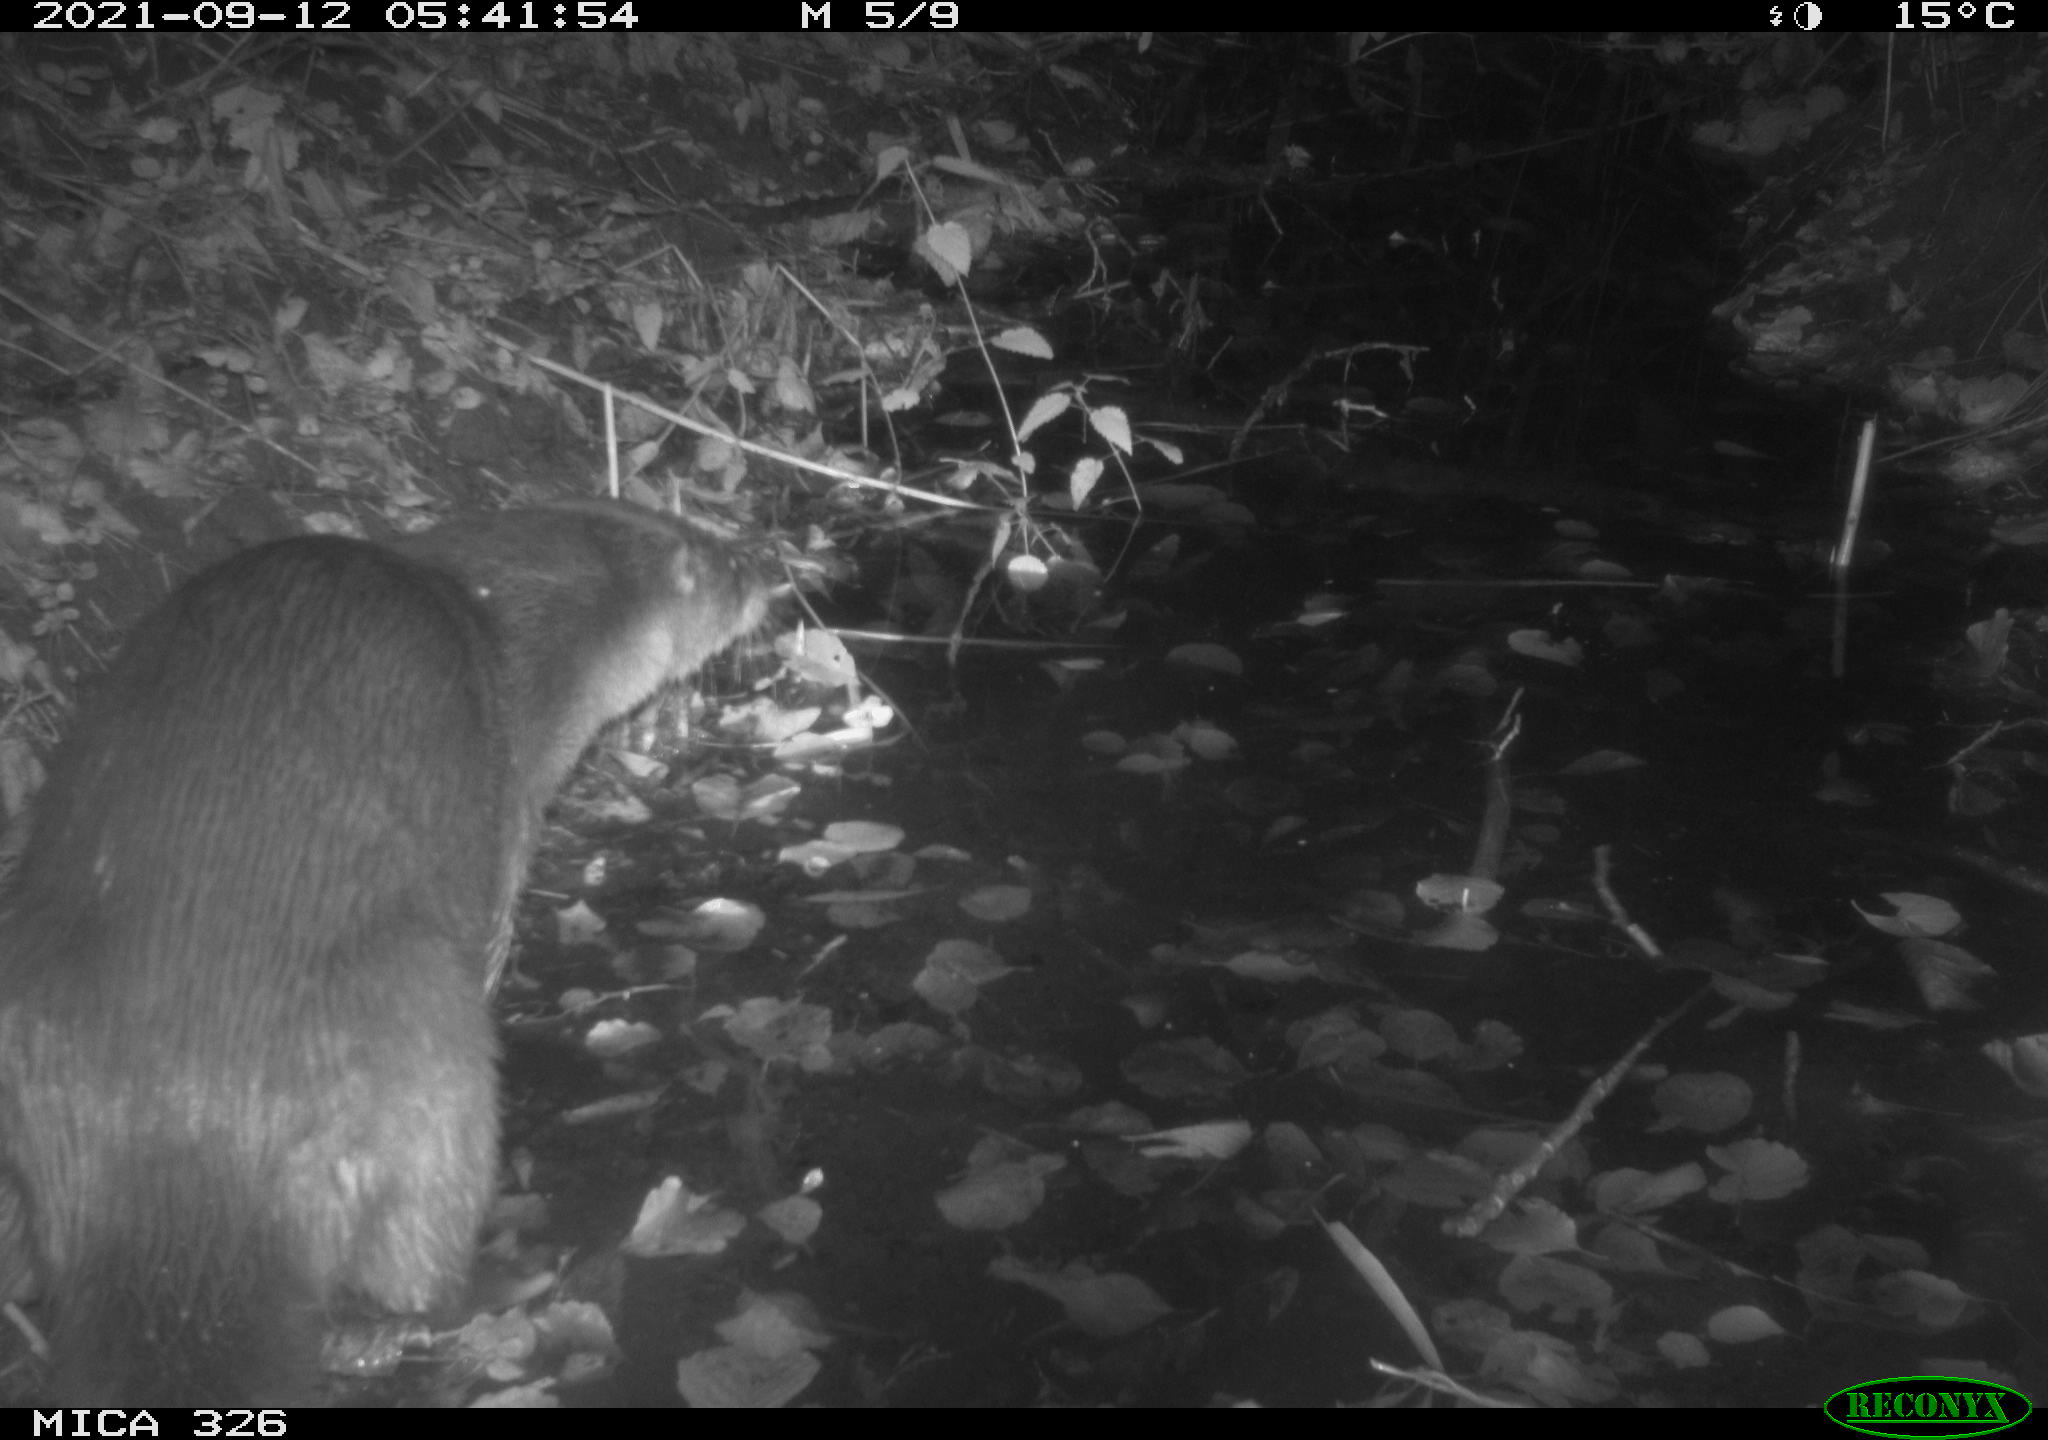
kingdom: Animalia
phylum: Chordata
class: Mammalia
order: Carnivora
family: Mustelidae
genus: Lutra
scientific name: Lutra lutra
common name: European otter
